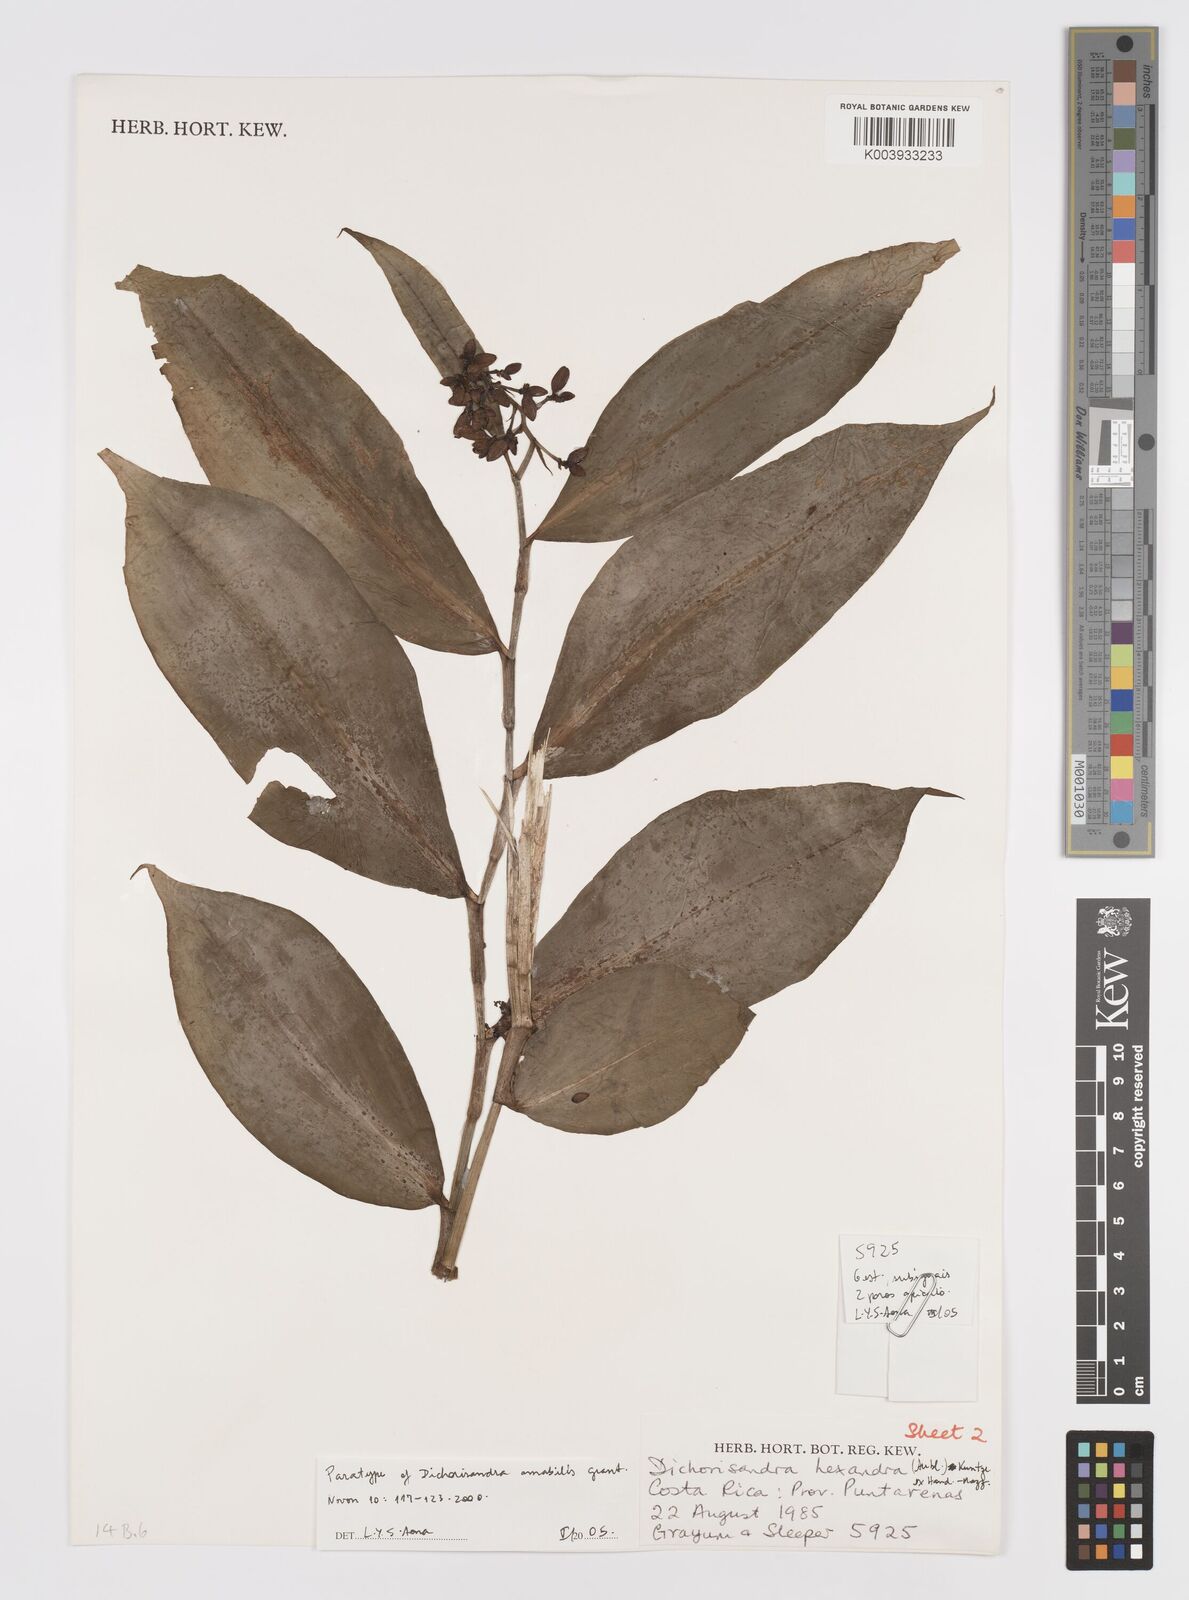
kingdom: Plantae
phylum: Tracheophyta
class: Liliopsida
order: Commelinales
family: Commelinaceae
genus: Dichorisandra
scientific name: Dichorisandra amabilis
